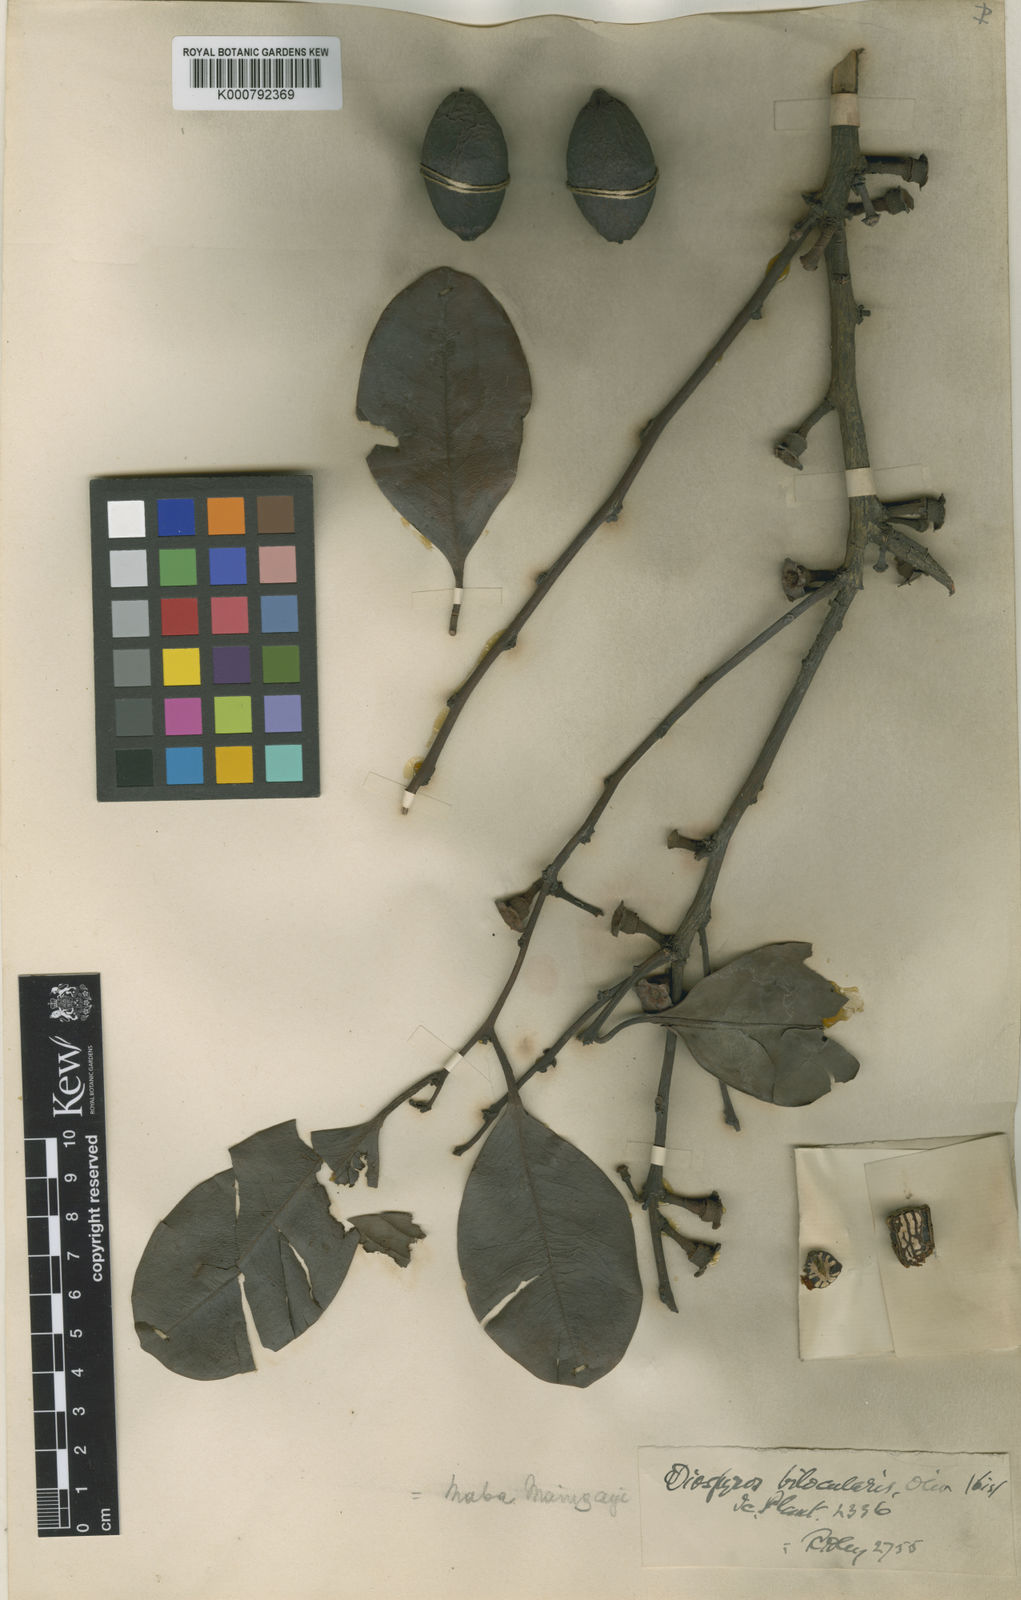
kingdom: Plantae
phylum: Tracheophyta
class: Magnoliopsida
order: Ericales
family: Ebenaceae
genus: Diospyros
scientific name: Diospyros maingayi
